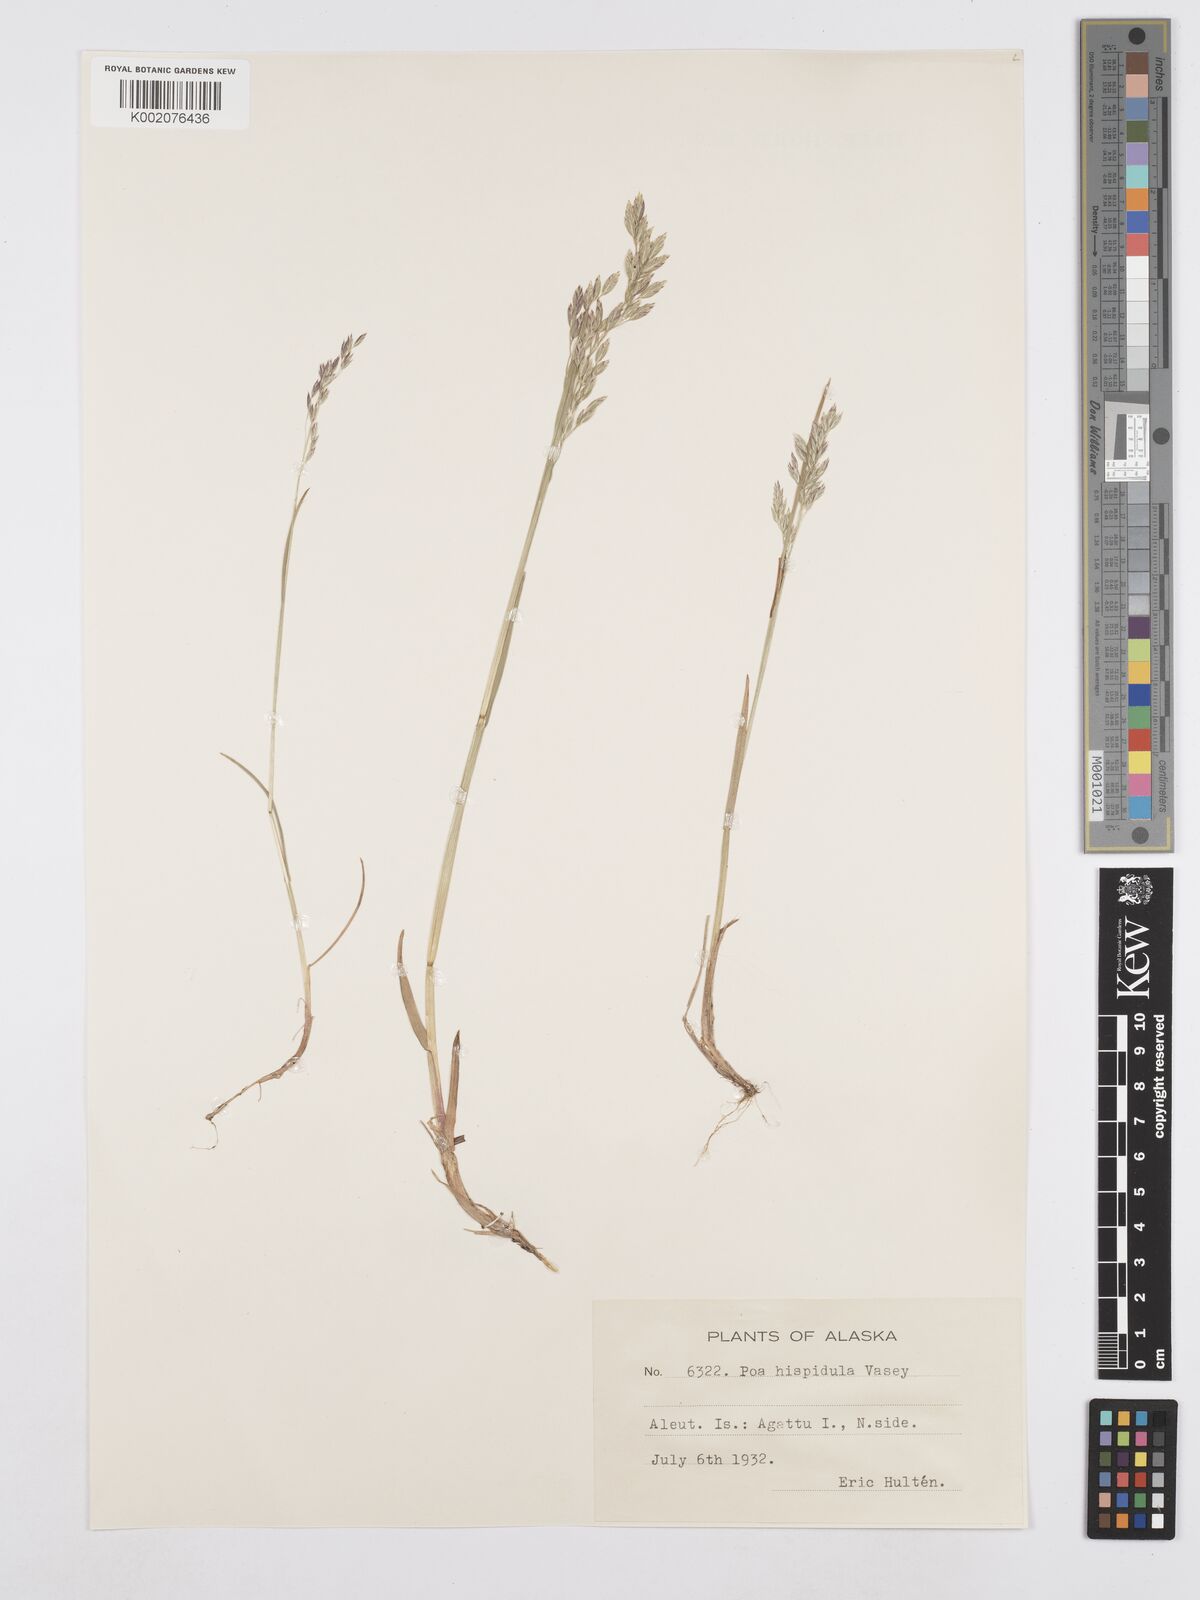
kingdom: Plantae
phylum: Tracheophyta
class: Liliopsida
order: Poales
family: Poaceae
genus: Poa
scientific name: Poa macrocalyx
